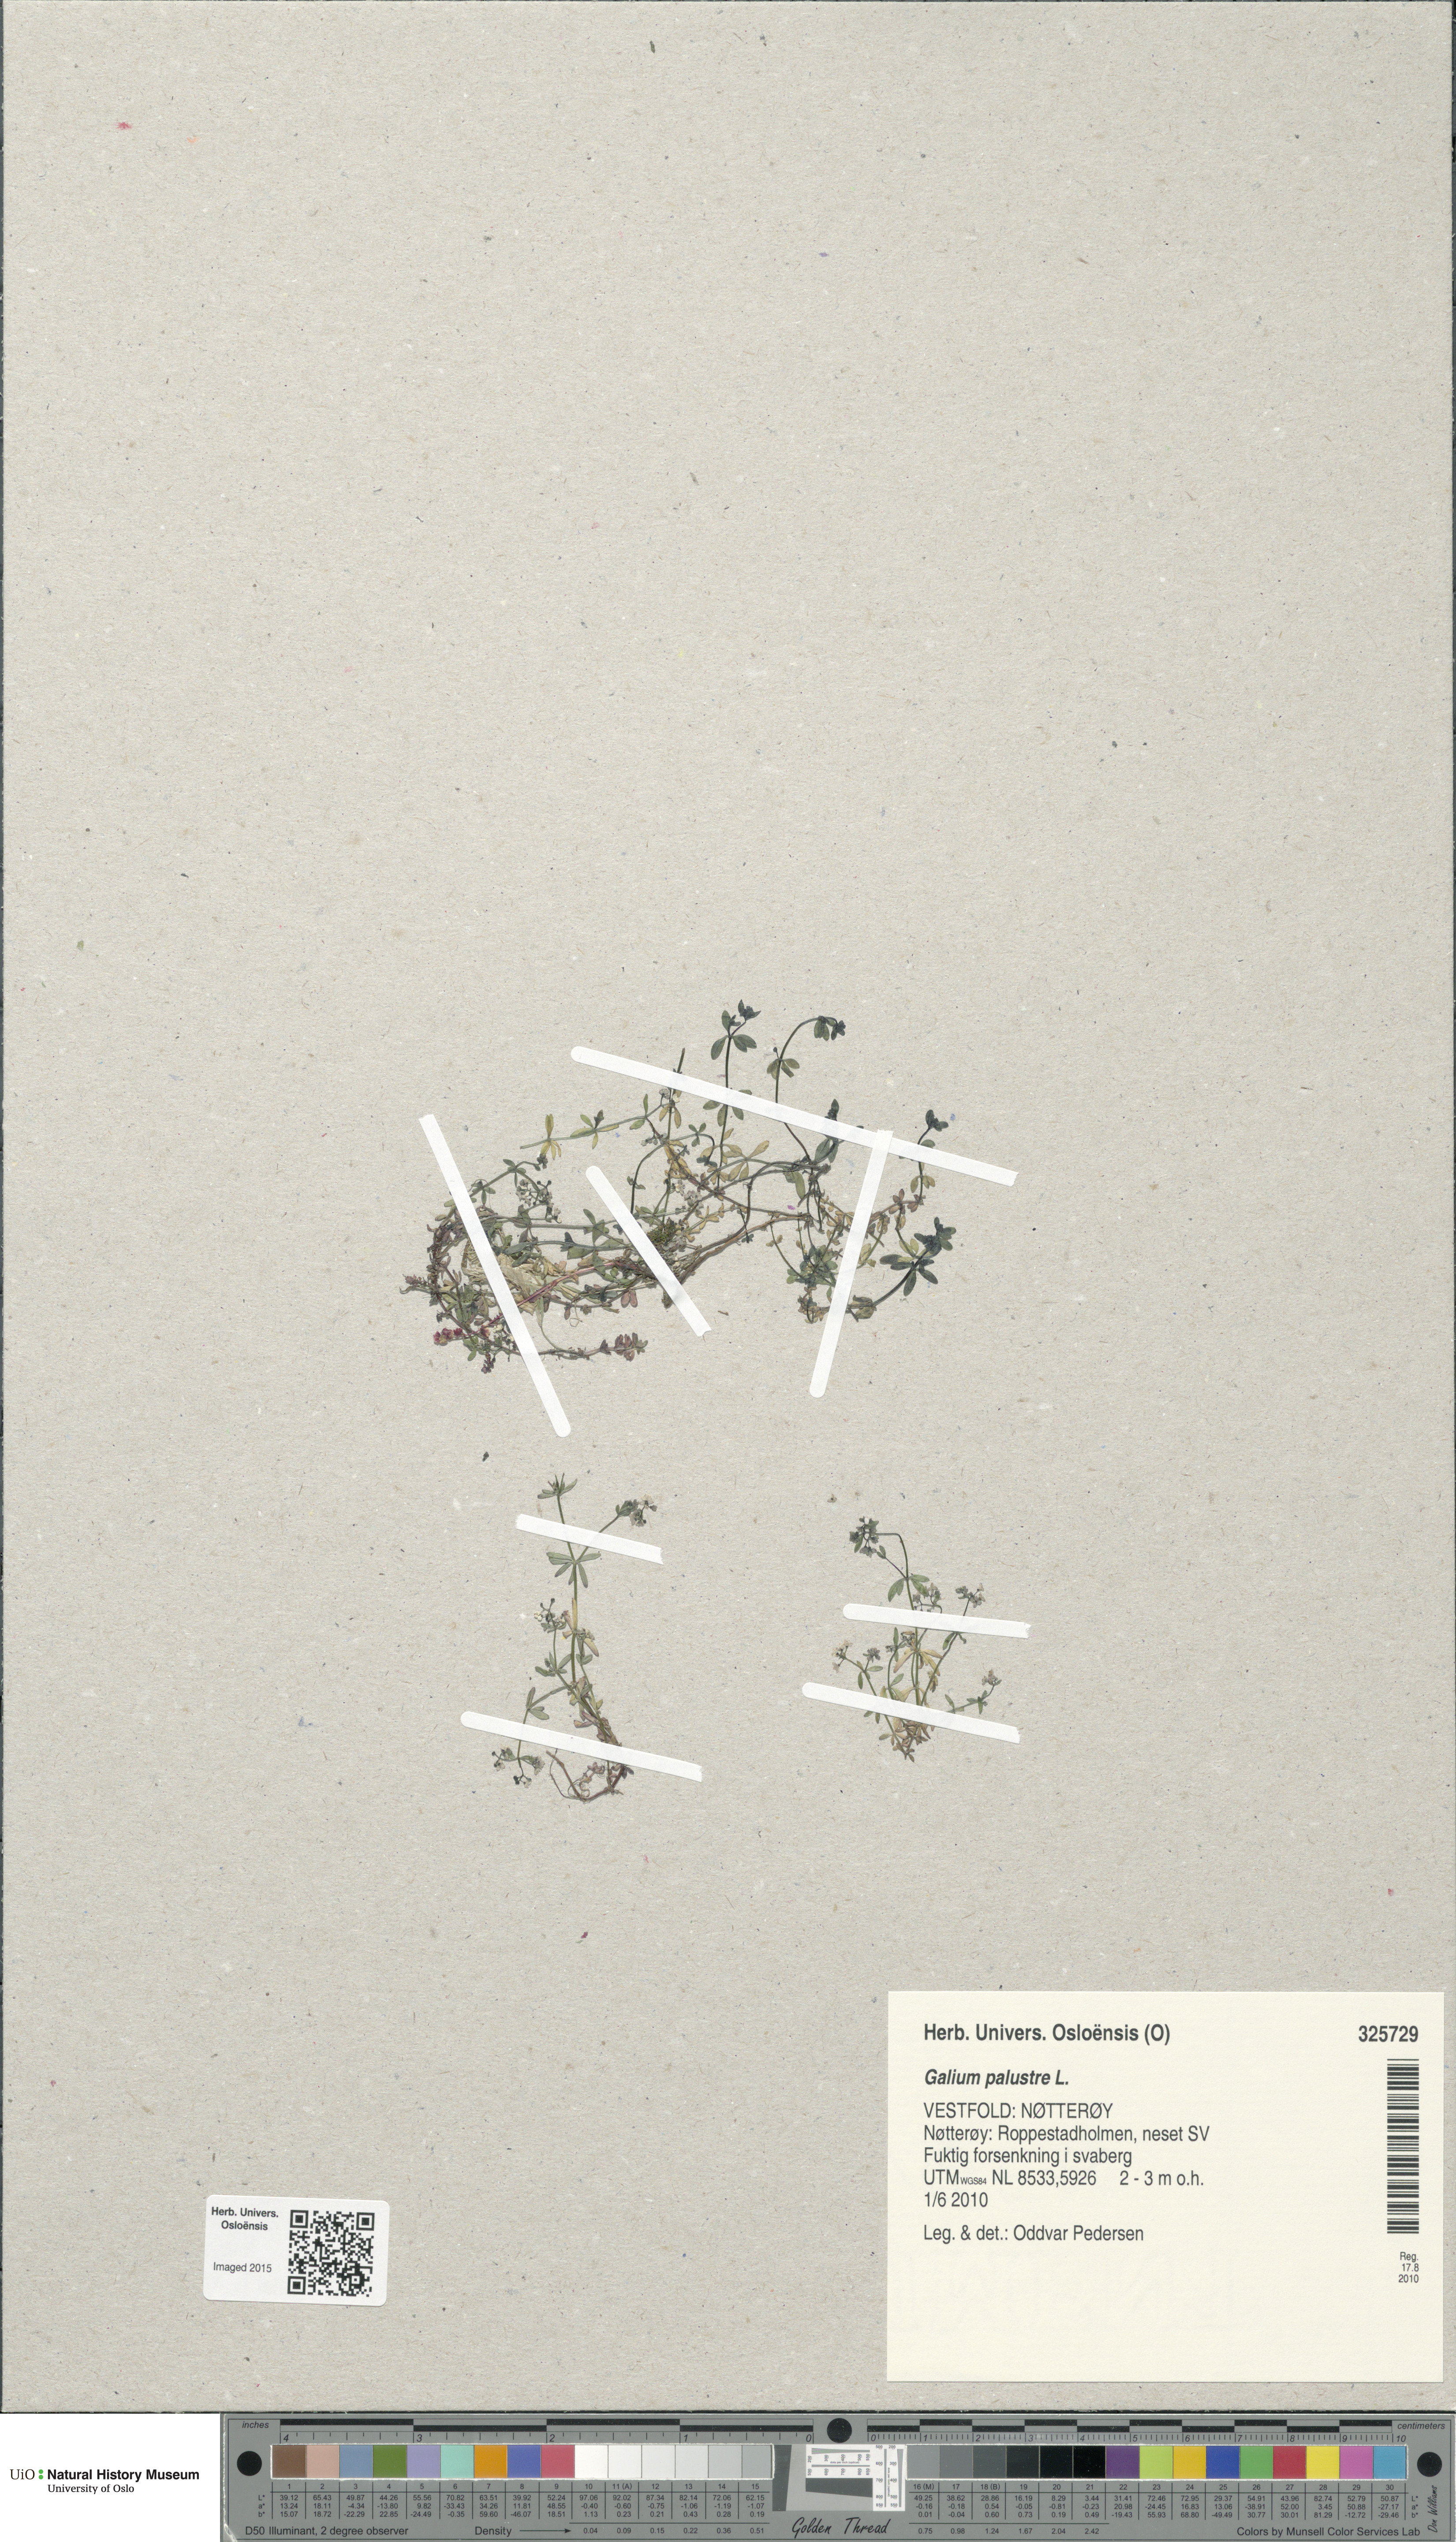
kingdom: Plantae
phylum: Tracheophyta
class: Magnoliopsida
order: Gentianales
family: Rubiaceae
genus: Galium
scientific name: Galium palustre
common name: Common marsh-bedstraw
